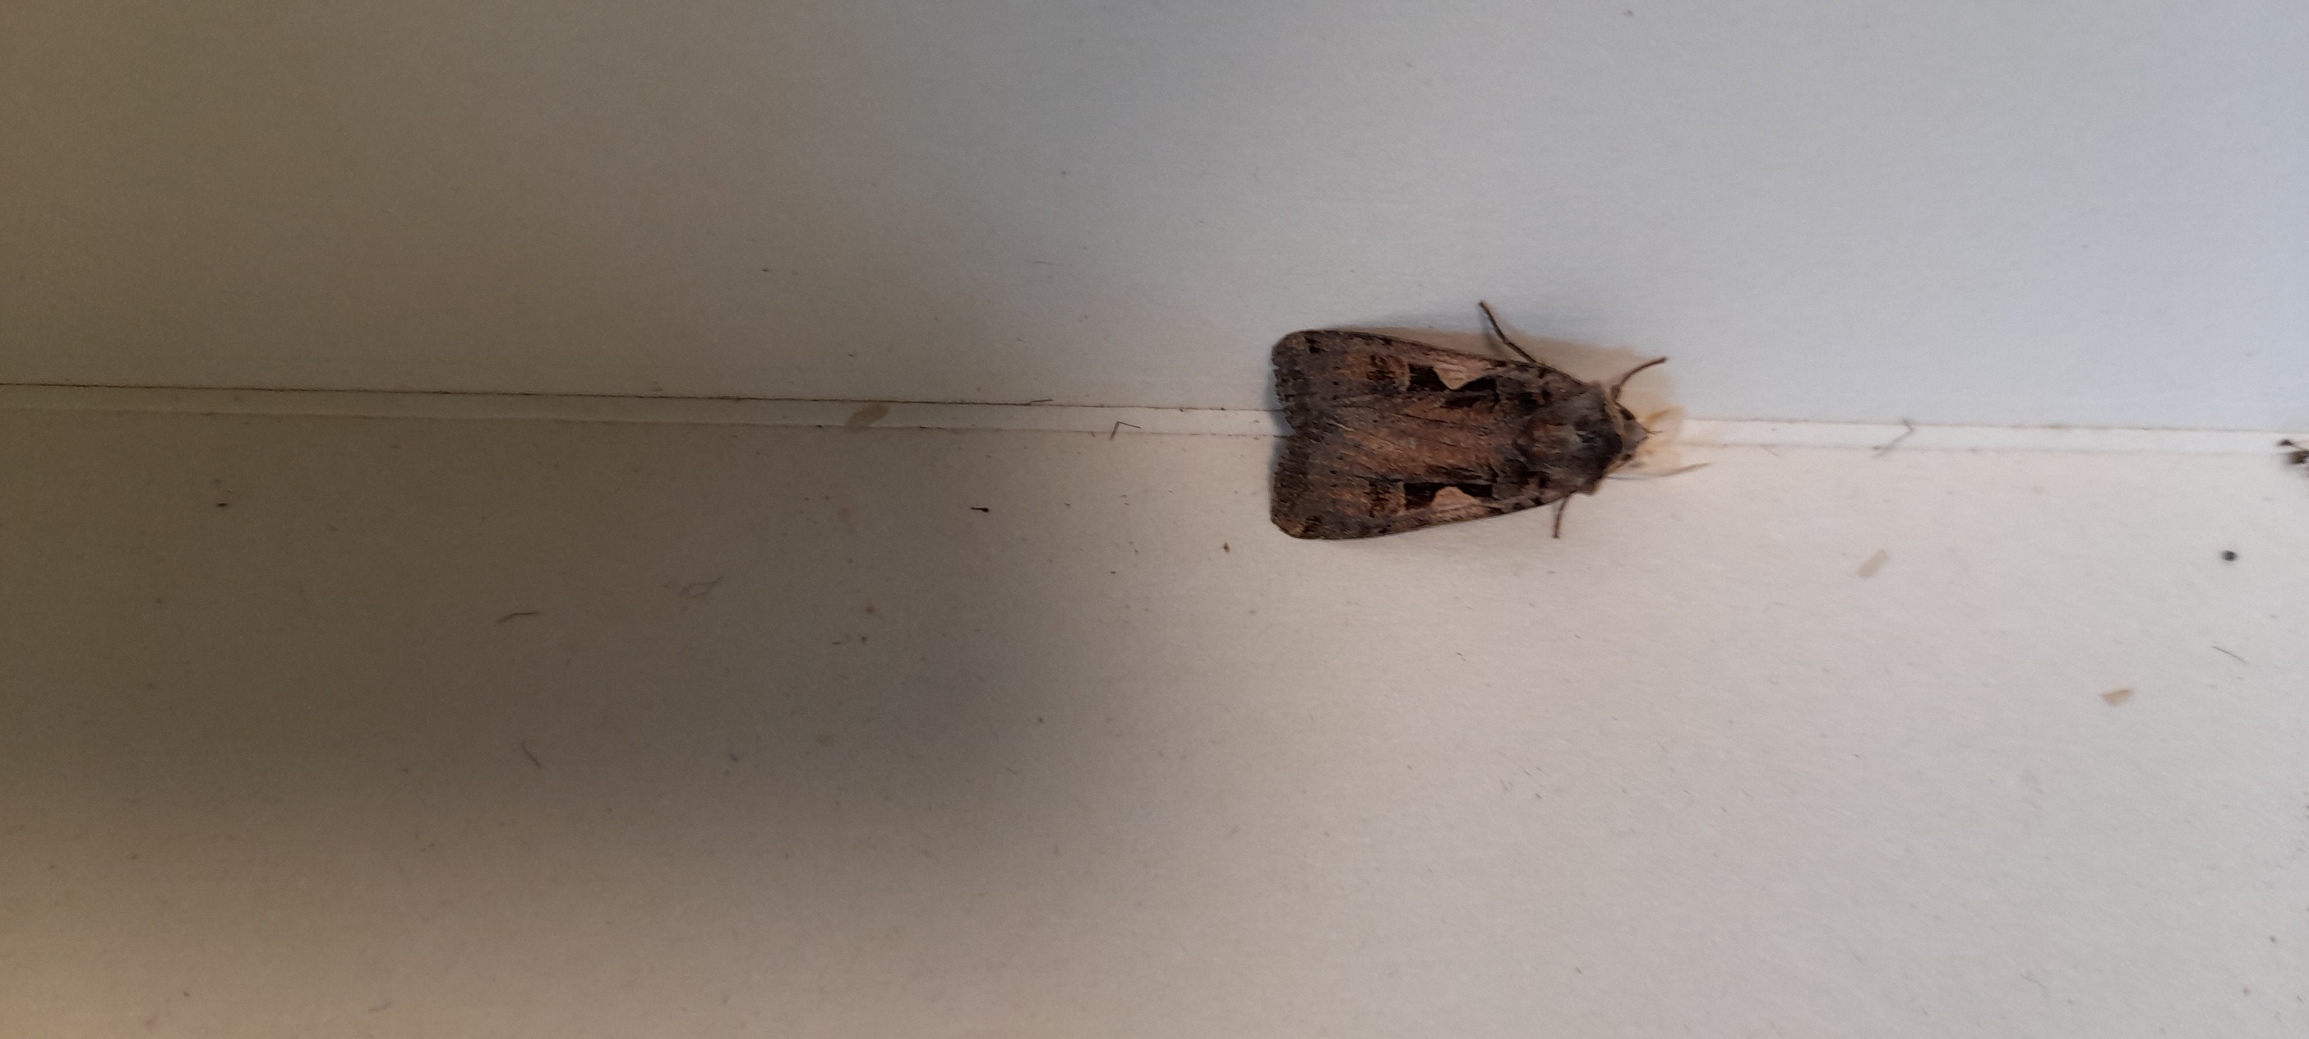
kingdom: Animalia
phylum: Arthropoda
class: Insecta
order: Lepidoptera
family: Noctuidae
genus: Xestia
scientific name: Xestia c-nigrum
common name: Det sorte c
